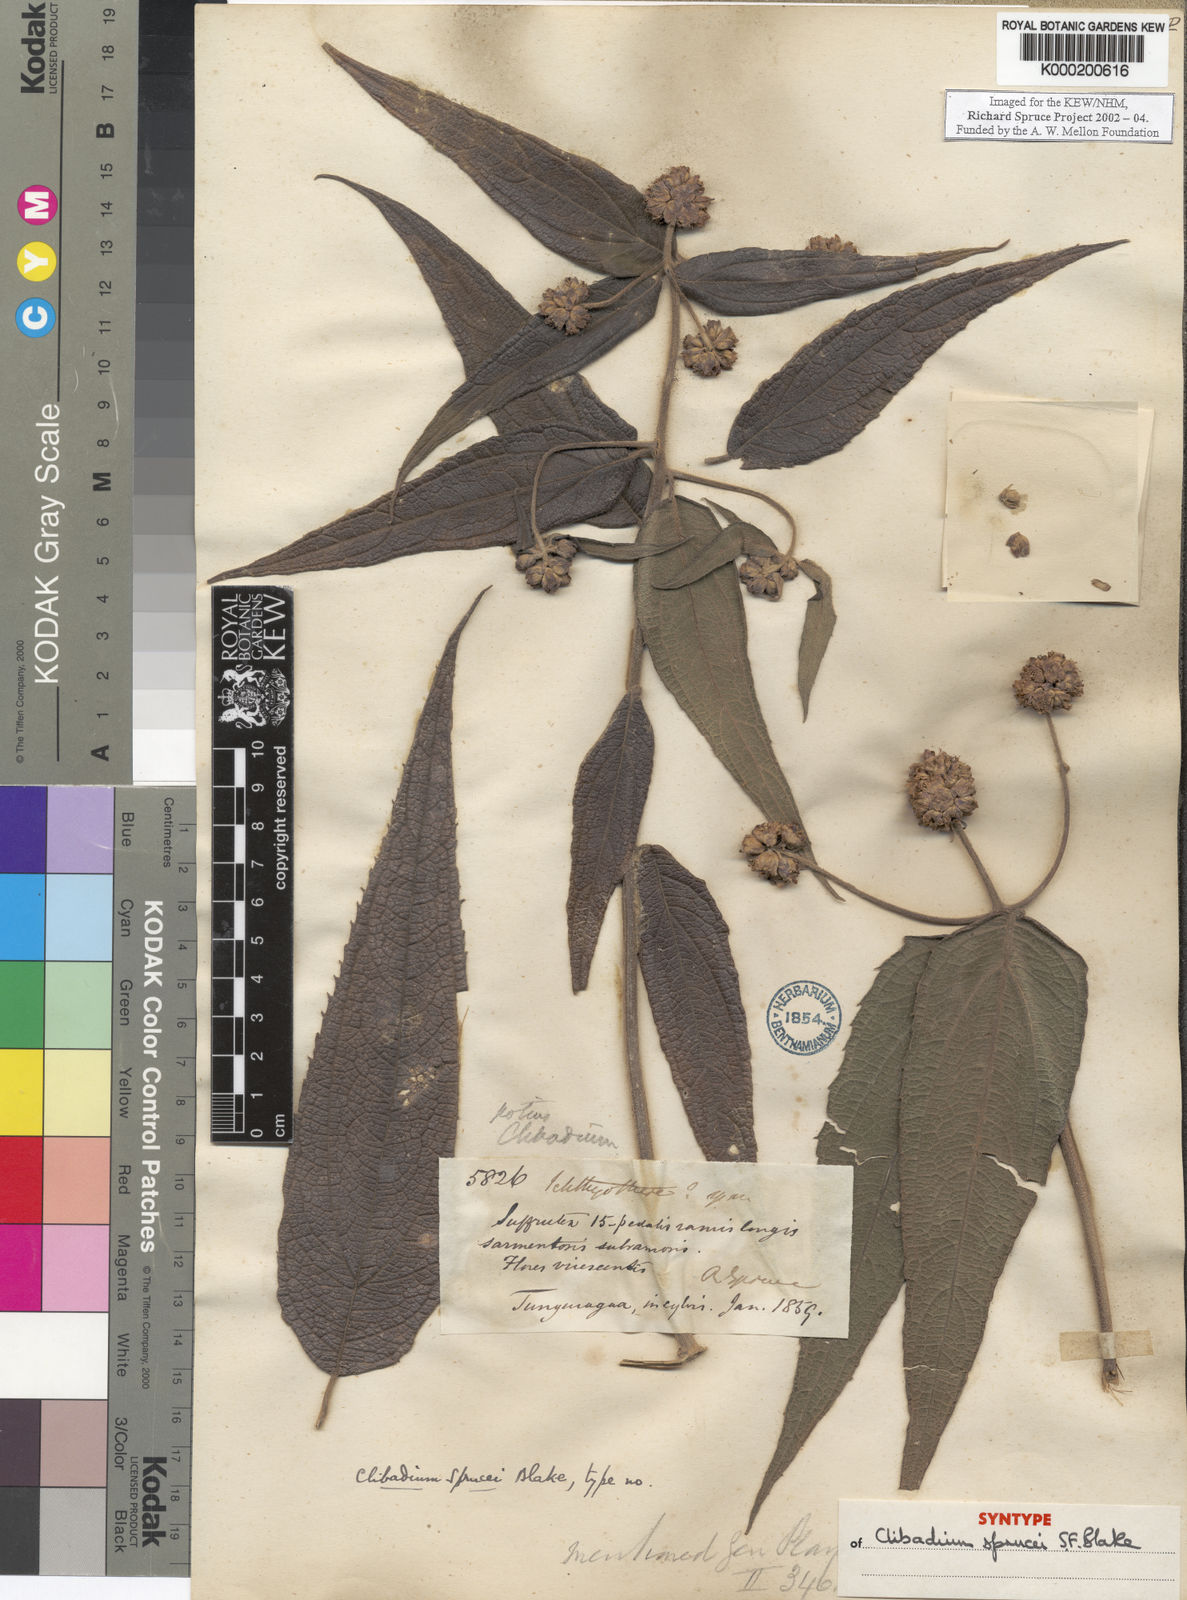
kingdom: Plantae
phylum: Tracheophyta
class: Magnoliopsida
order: Asterales
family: Asteraceae
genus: Clibadium
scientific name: Clibadium sprucei
